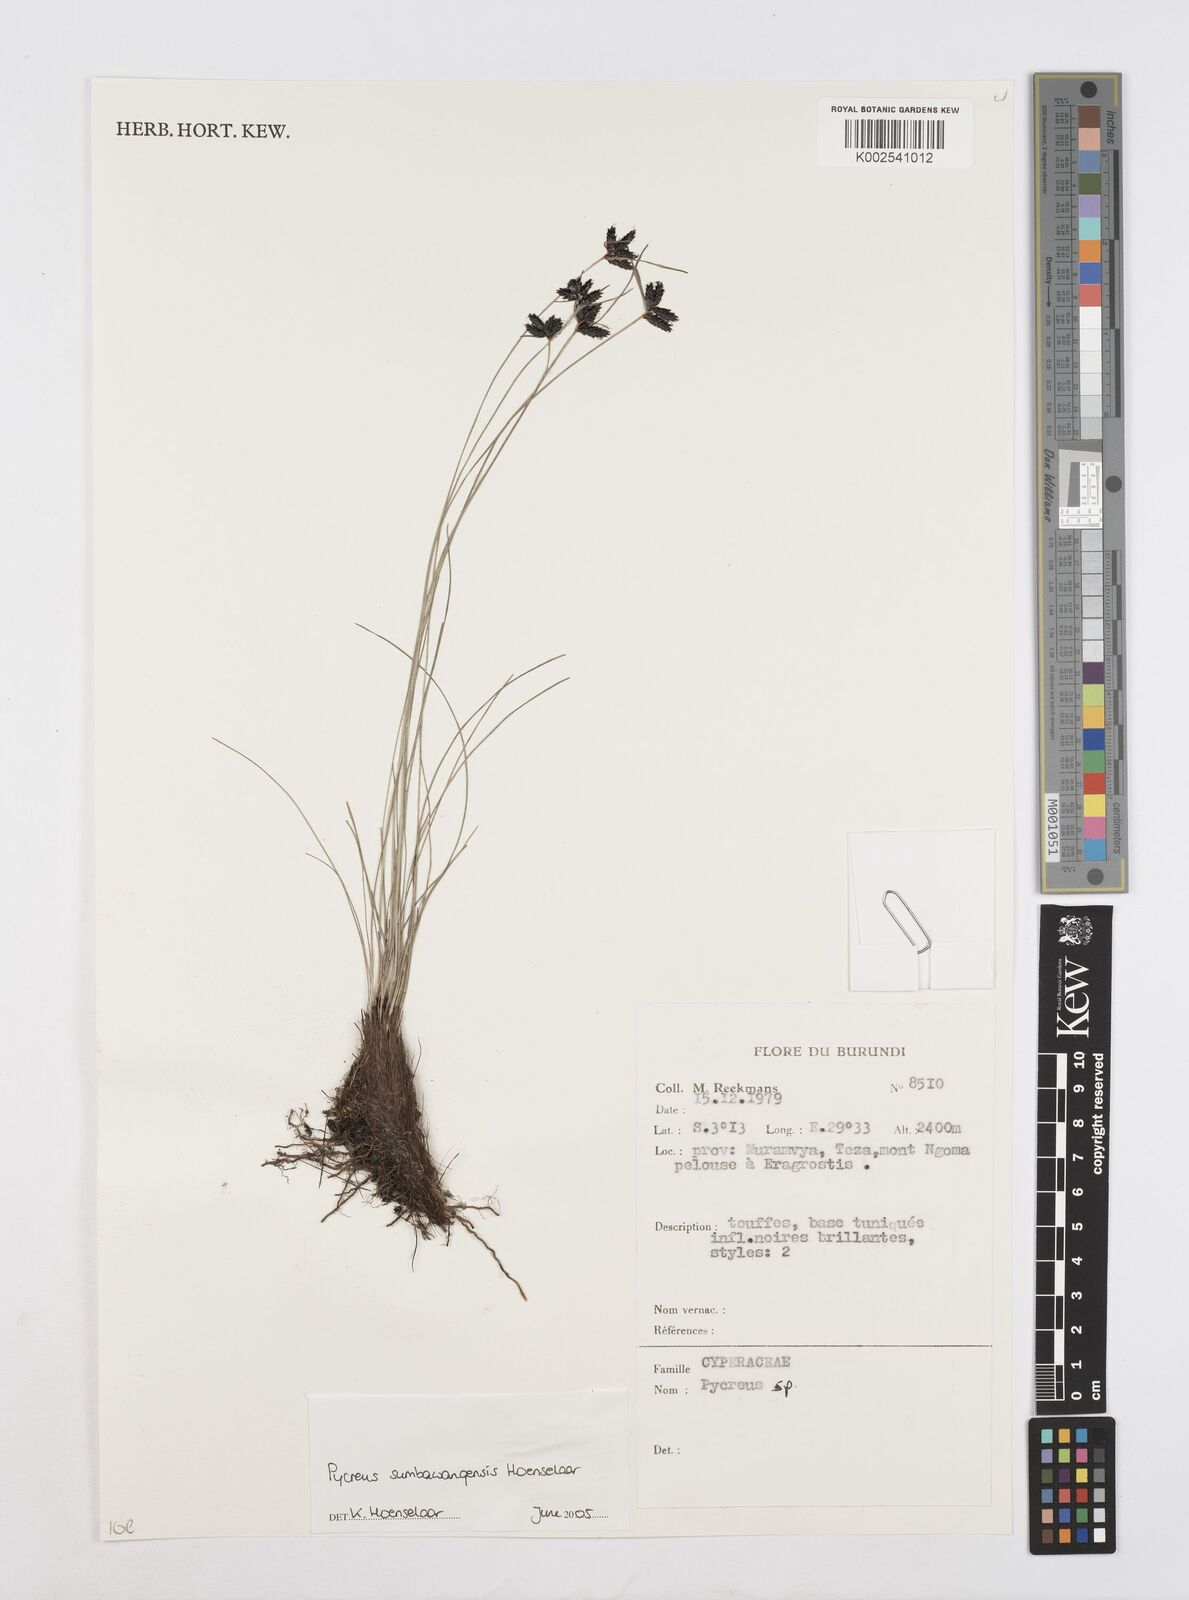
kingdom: Plantae
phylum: Tracheophyta
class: Liliopsida
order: Poales
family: Cyperaceae
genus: Cyperus
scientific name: Cyperus nigricans
